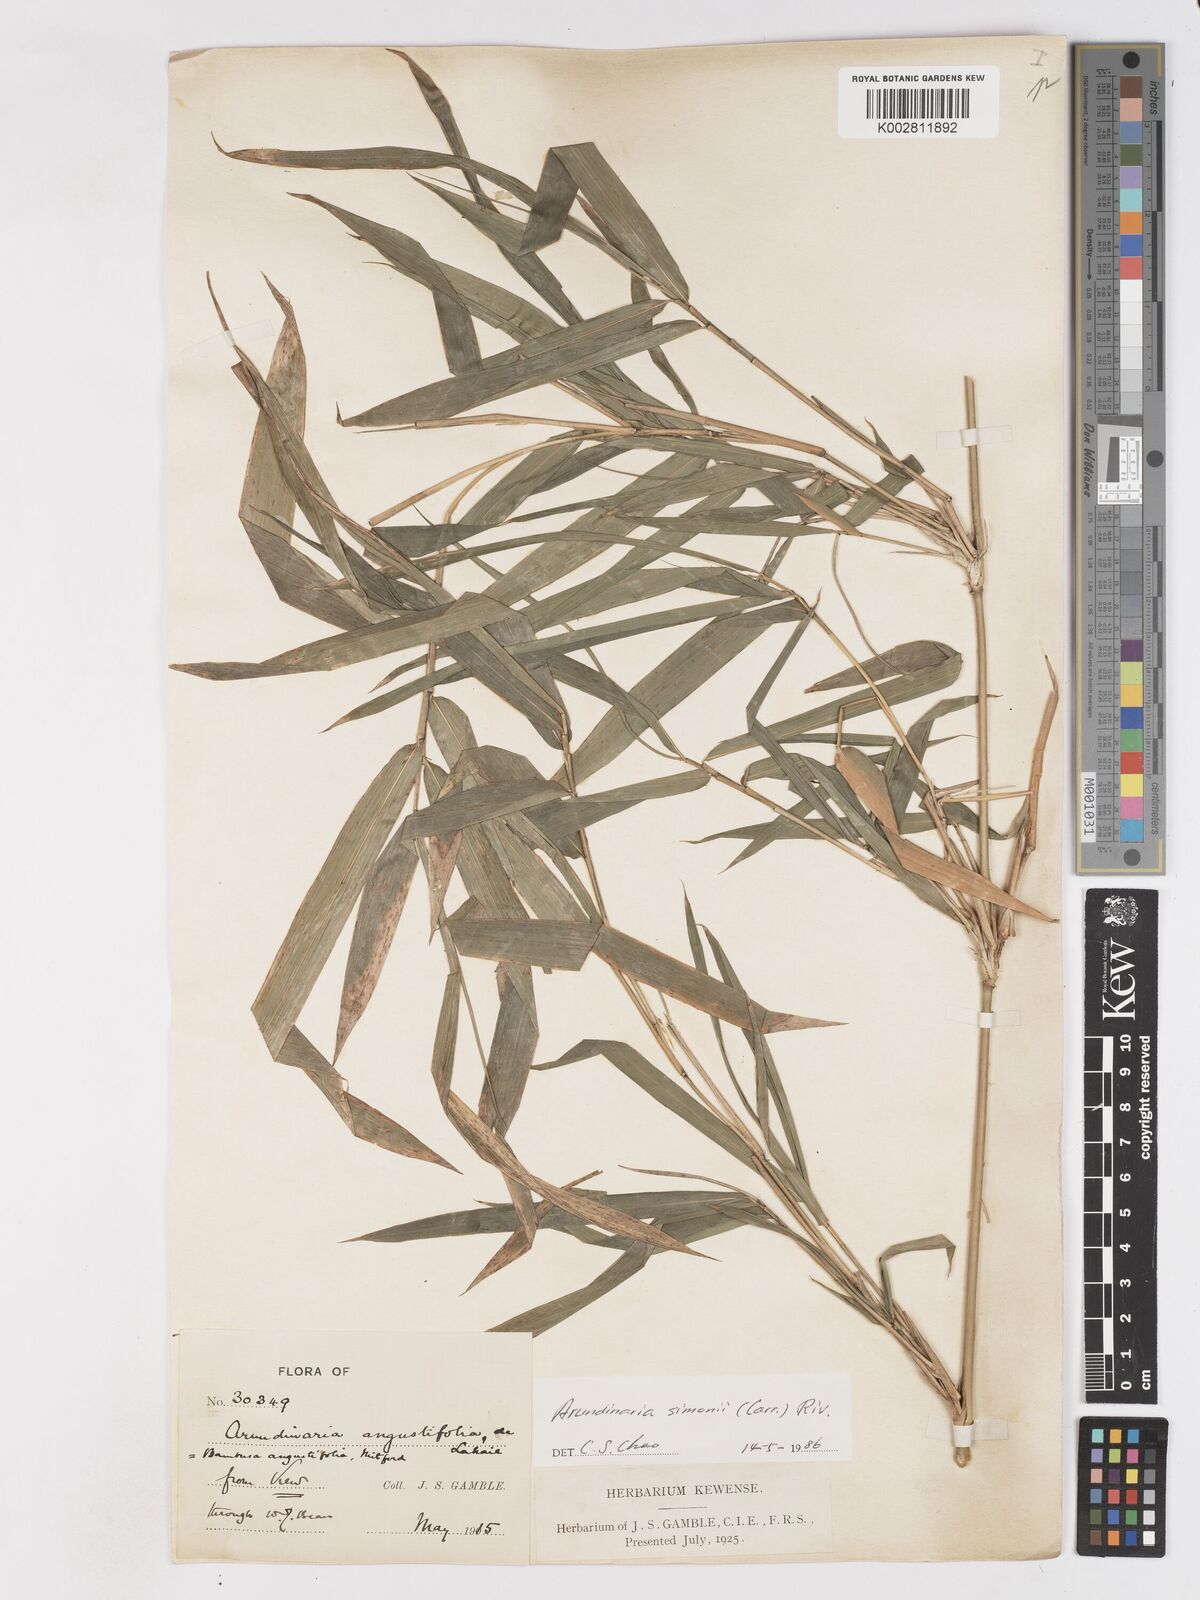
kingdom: Plantae
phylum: Tracheophyta
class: Liliopsida
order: Poales
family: Poaceae
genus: Pleioblastus
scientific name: Pleioblastus simonii
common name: Simon bamboo
